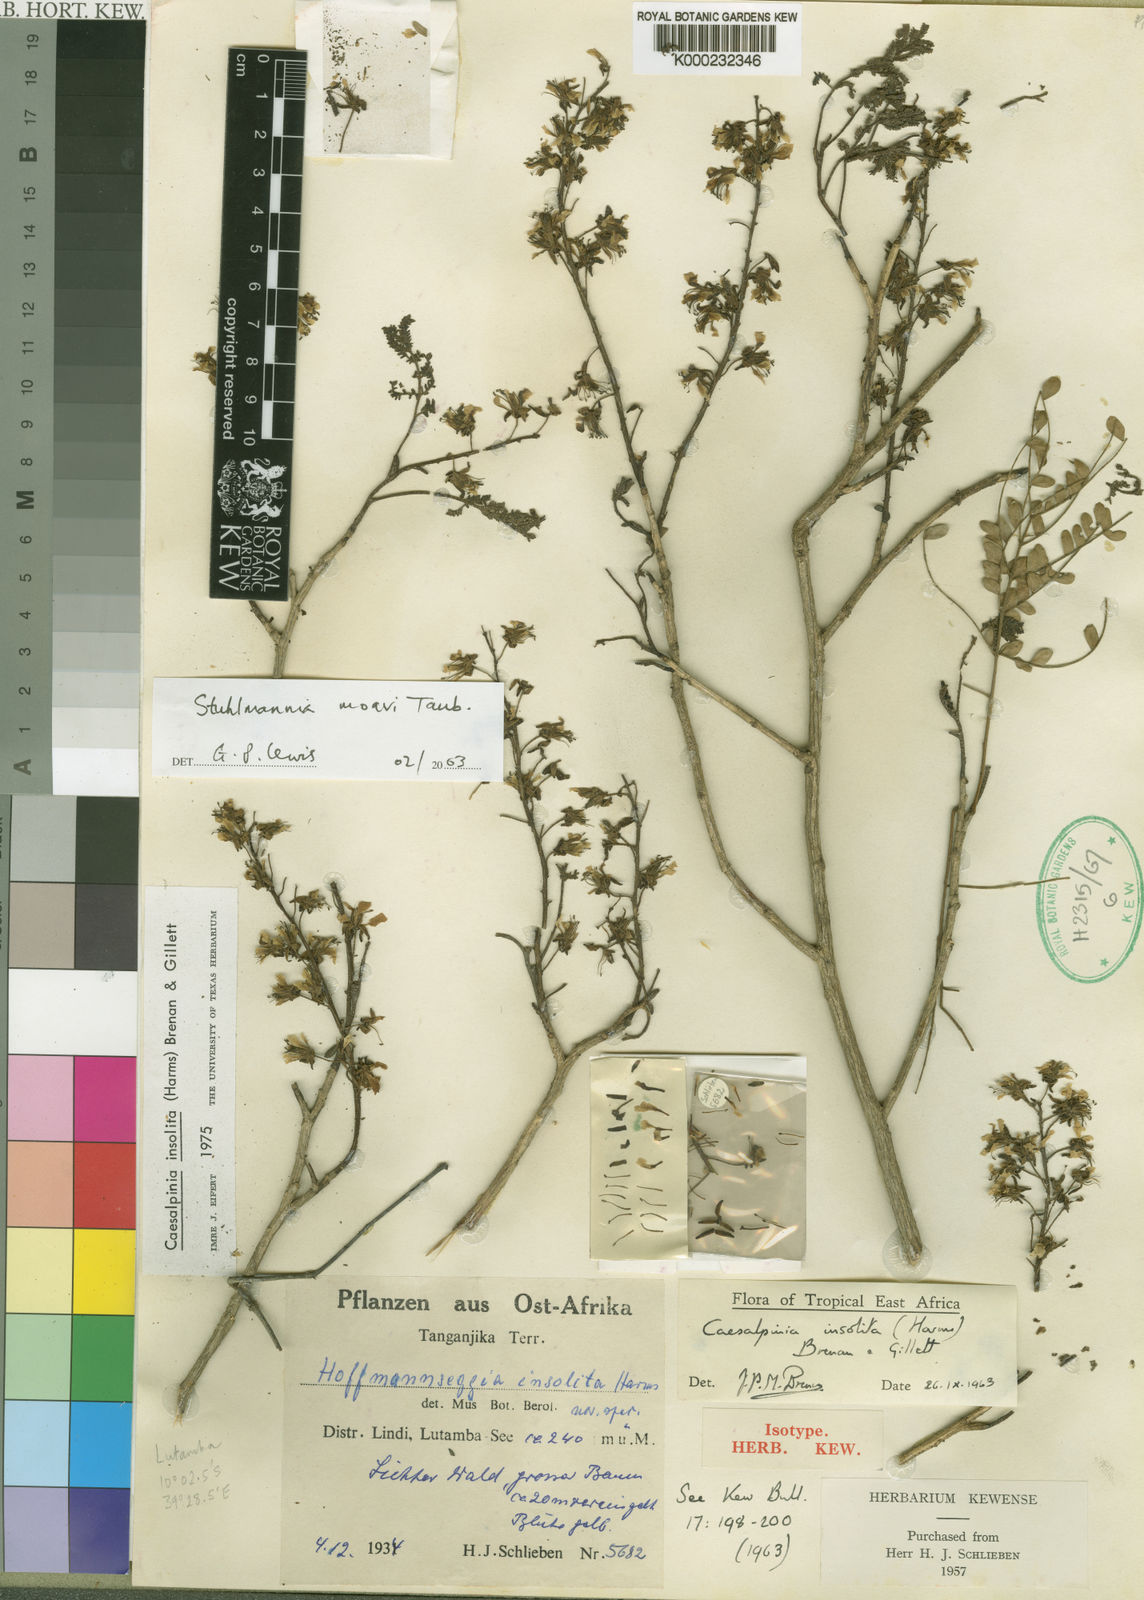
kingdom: Plantae
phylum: Tracheophyta
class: Magnoliopsida
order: Fabales
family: Fabaceae
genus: Stuhlmannia
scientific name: Stuhlmannia moavi
